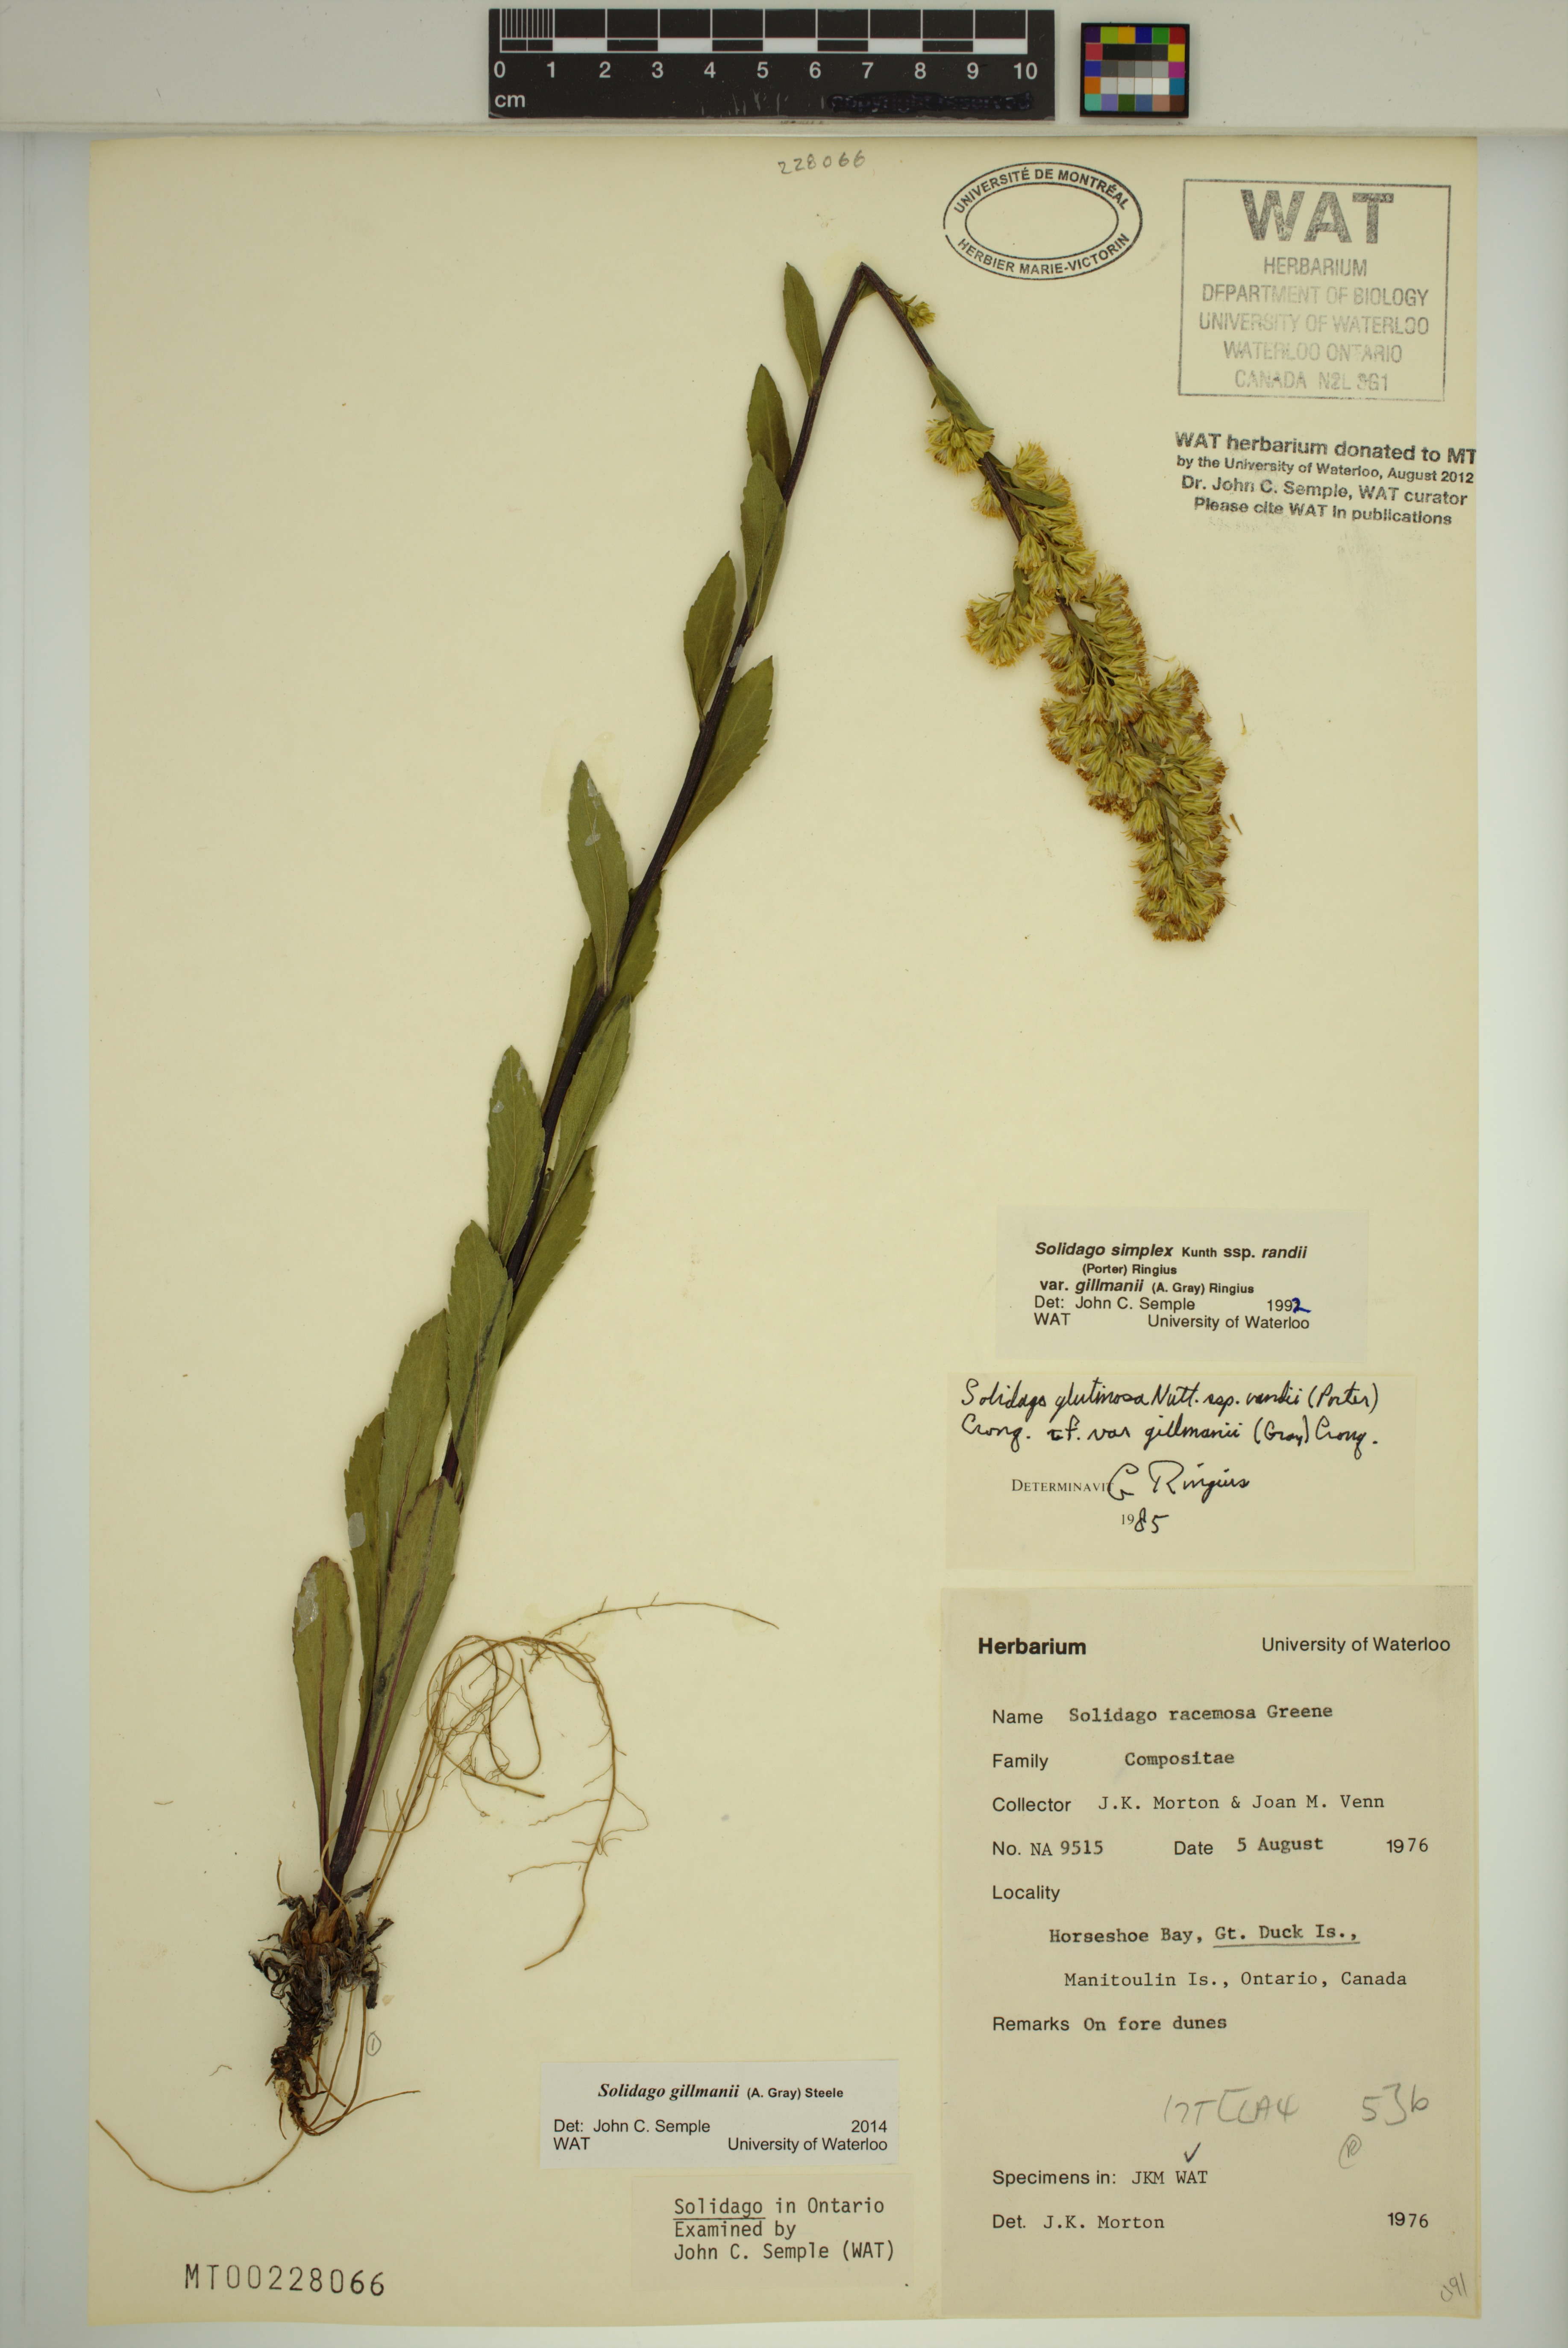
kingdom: Plantae
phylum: Tracheophyta
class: Magnoliopsida
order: Asterales
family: Asteraceae
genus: Solidago
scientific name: Solidago gillmanii
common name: Gillman's goldenrod
